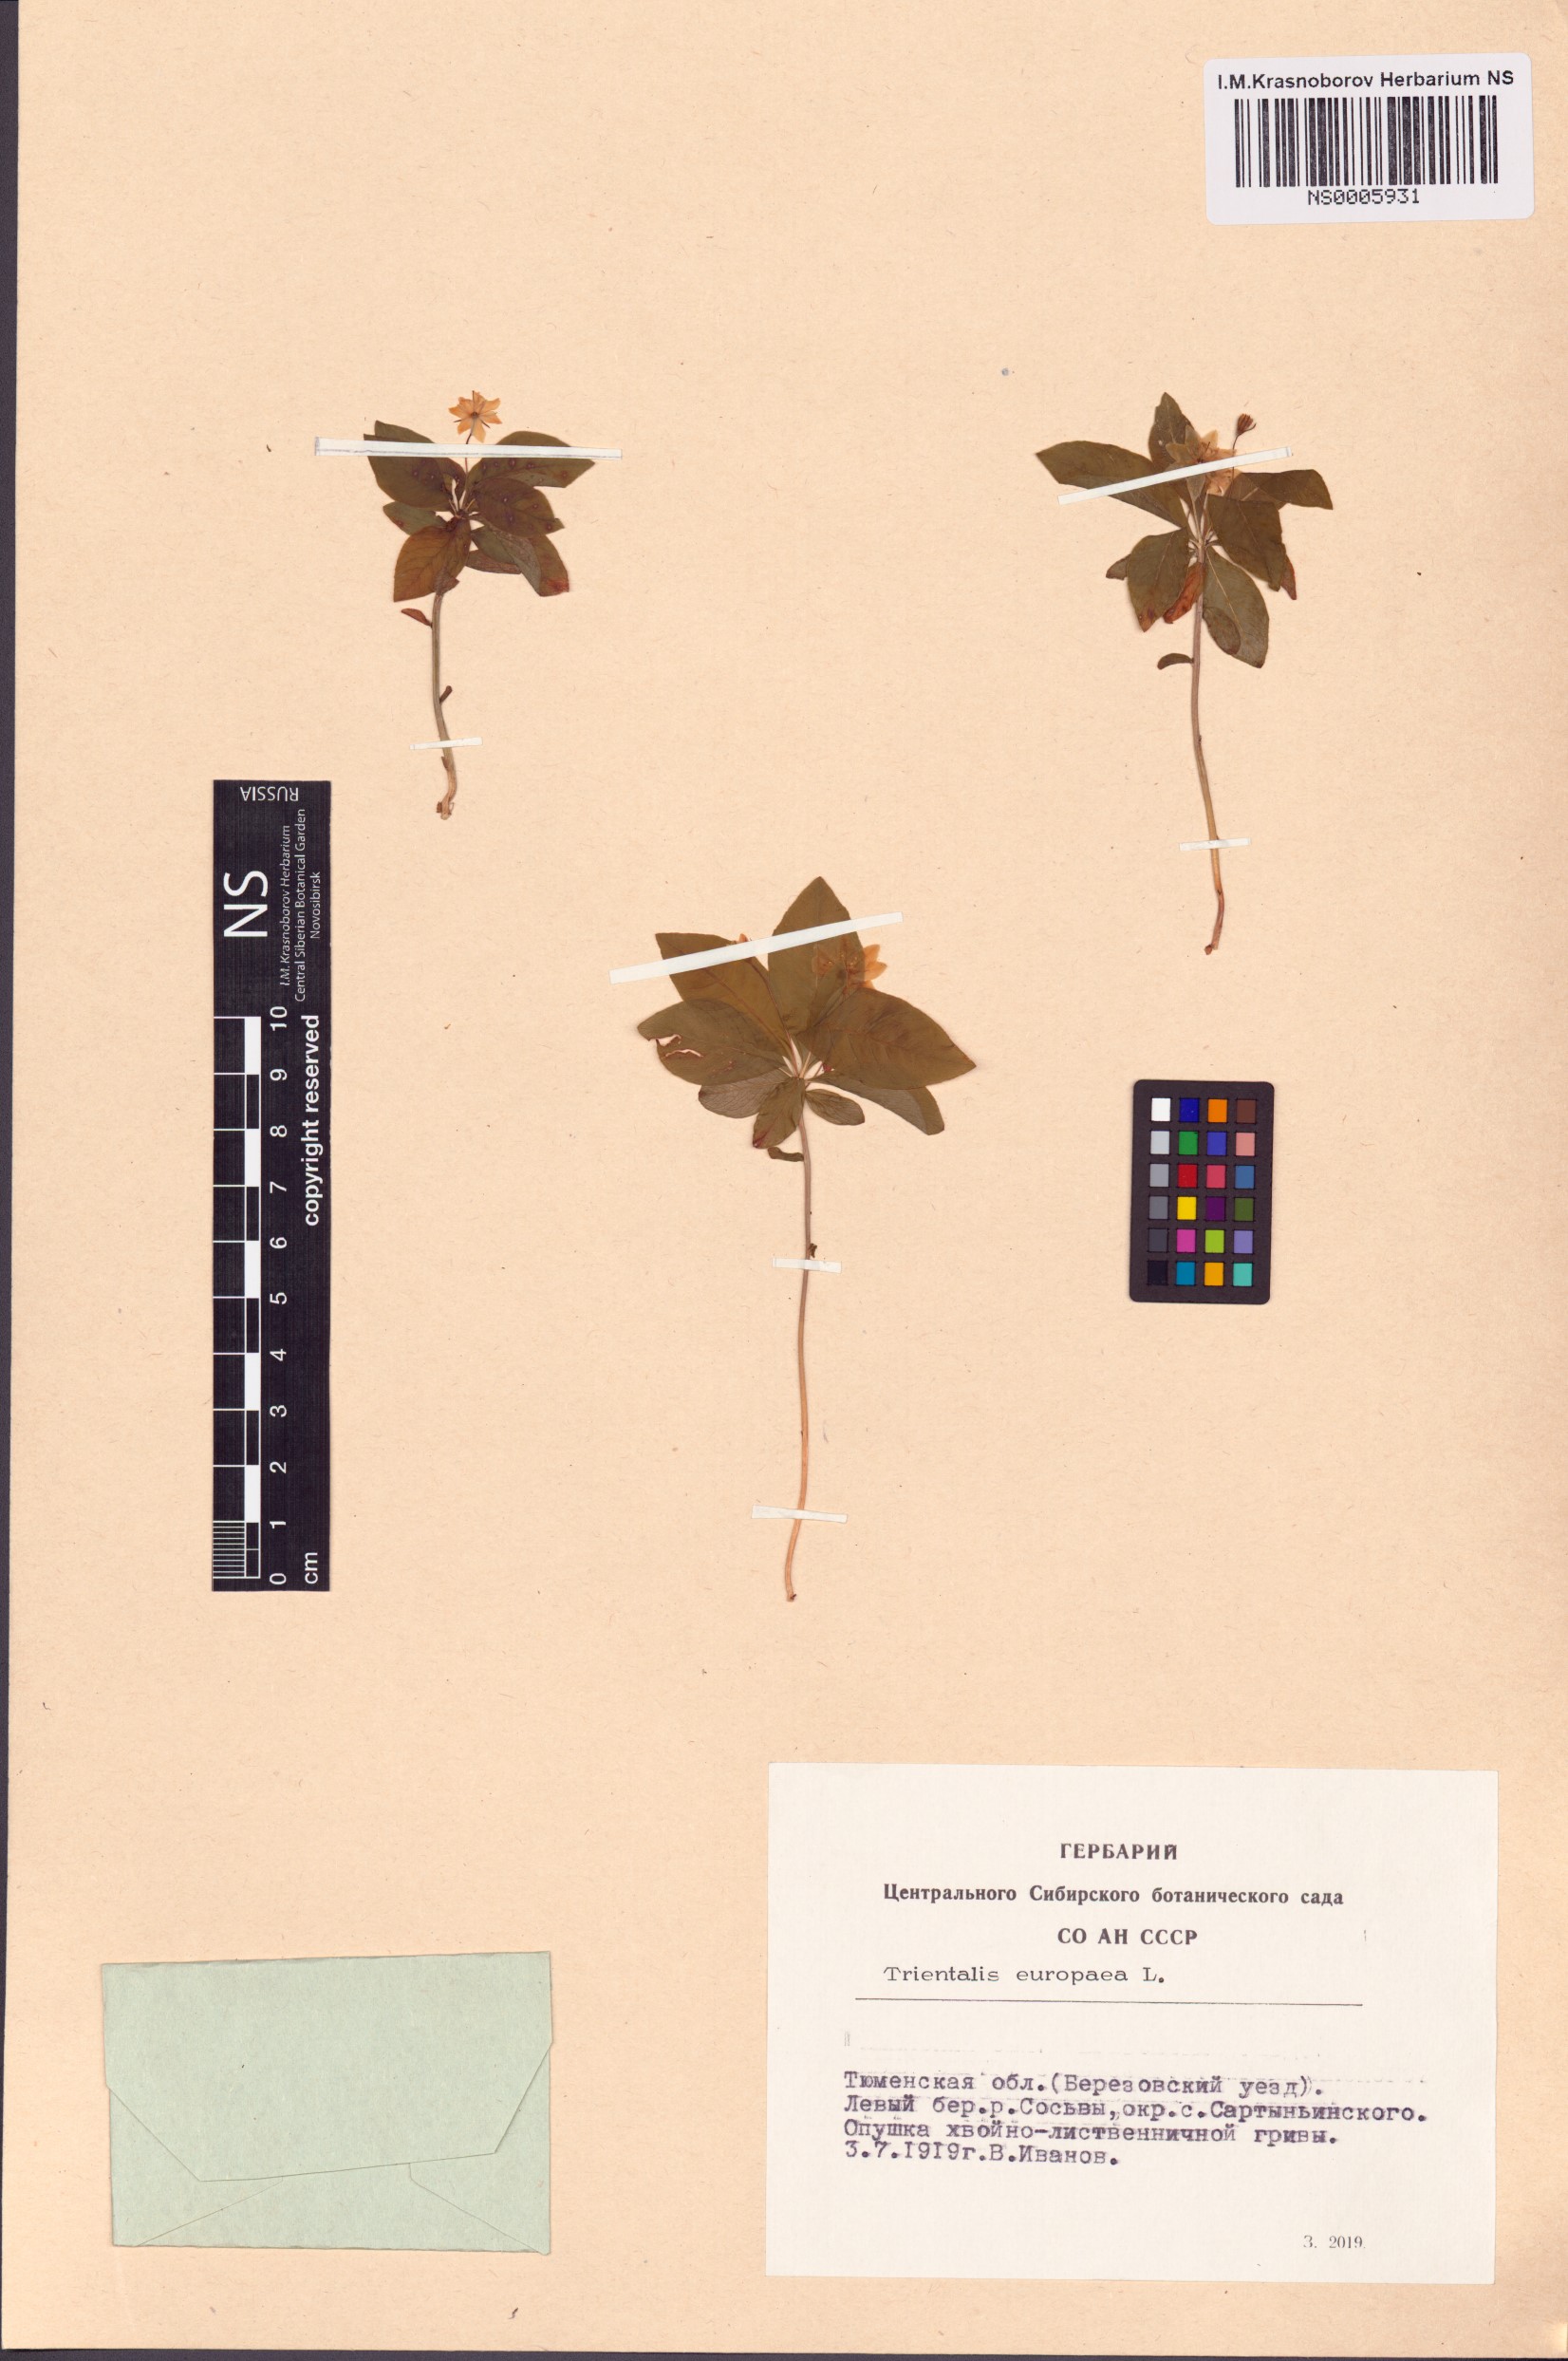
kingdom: Plantae
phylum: Tracheophyta
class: Magnoliopsida
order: Ericales
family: Primulaceae
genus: Lysimachia
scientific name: Lysimachia europaea
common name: Arctic starflower
